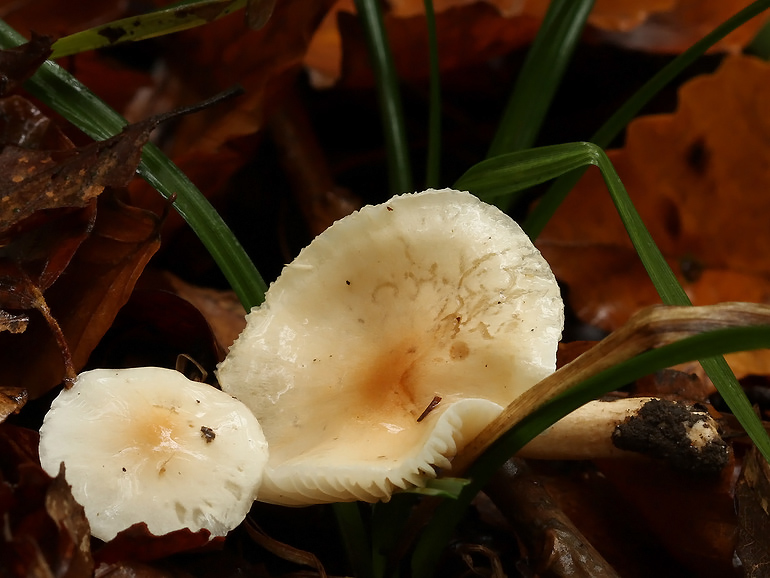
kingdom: Fungi
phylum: Basidiomycota
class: Agaricomycetes
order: Agaricales
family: Hygrophoraceae
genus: Hygrophorus
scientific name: Hygrophorus unicolor
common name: orangeøjet sneglehat
